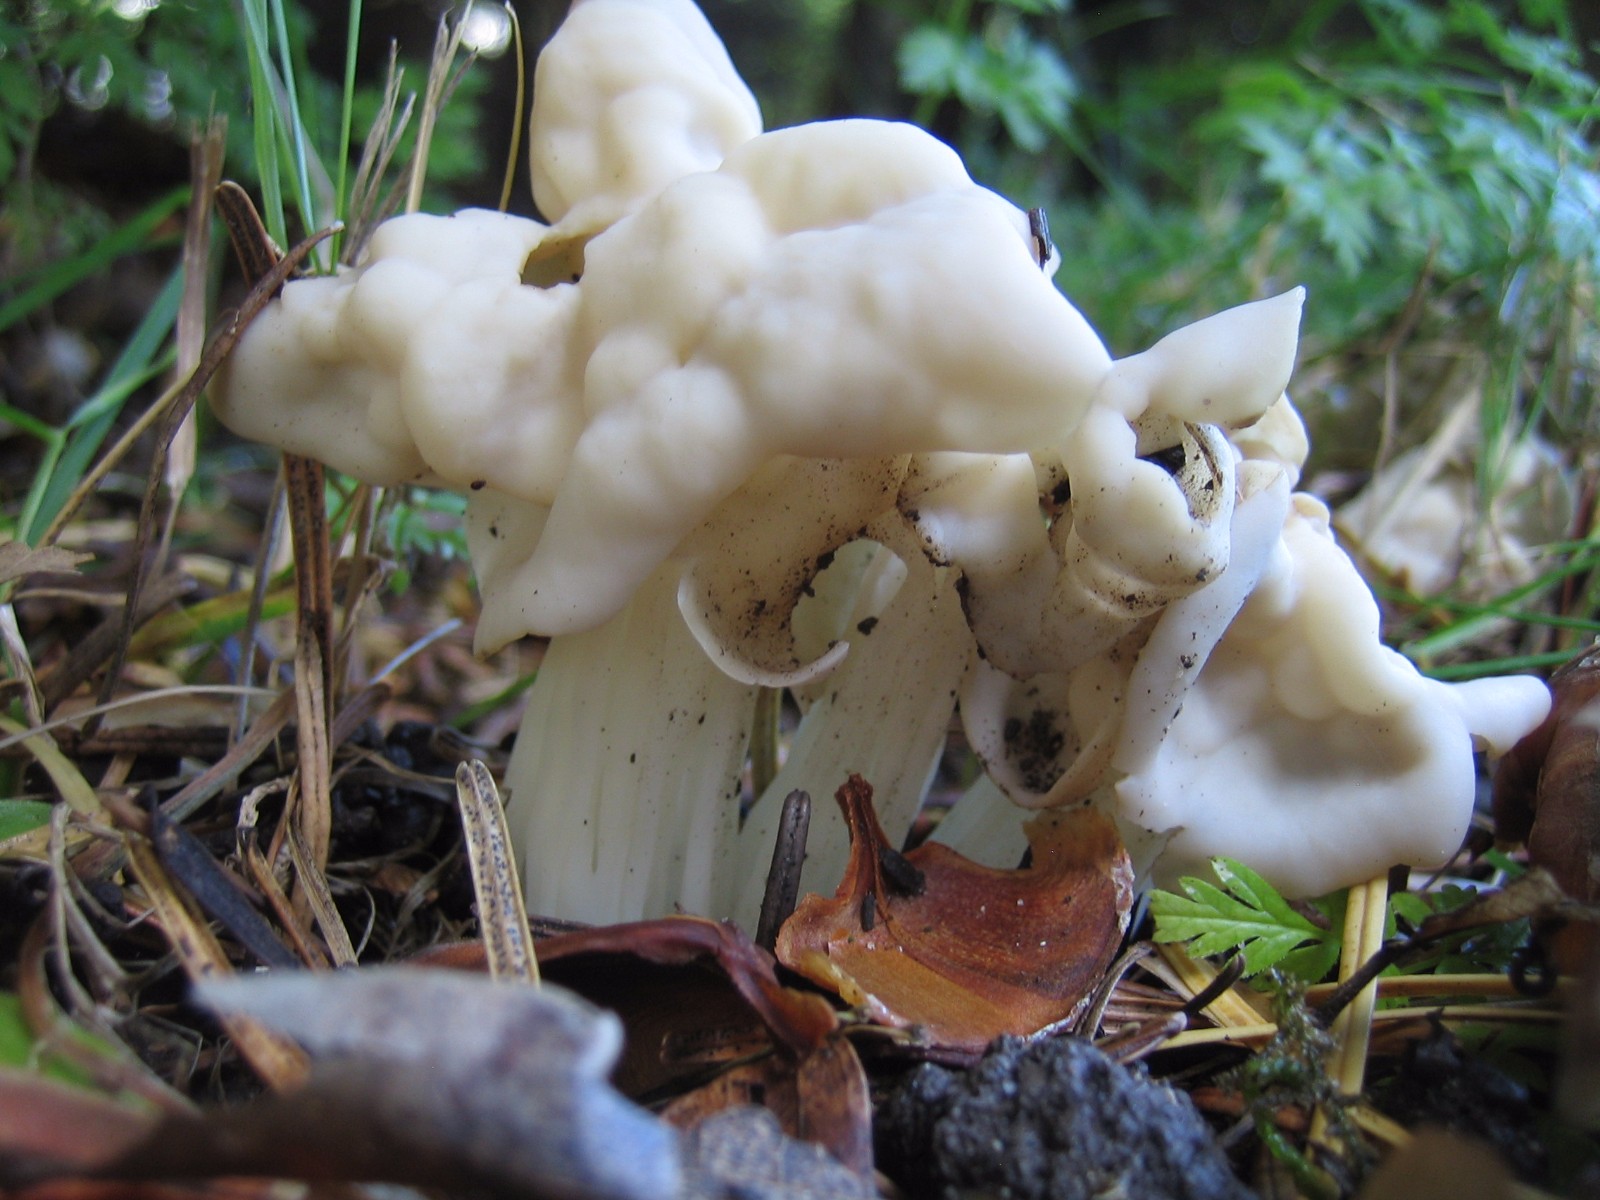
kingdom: Fungi
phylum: Ascomycota
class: Pezizomycetes
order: Pezizales
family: Helvellaceae
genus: Helvella
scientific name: Helvella crispa
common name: kruset foldhat
